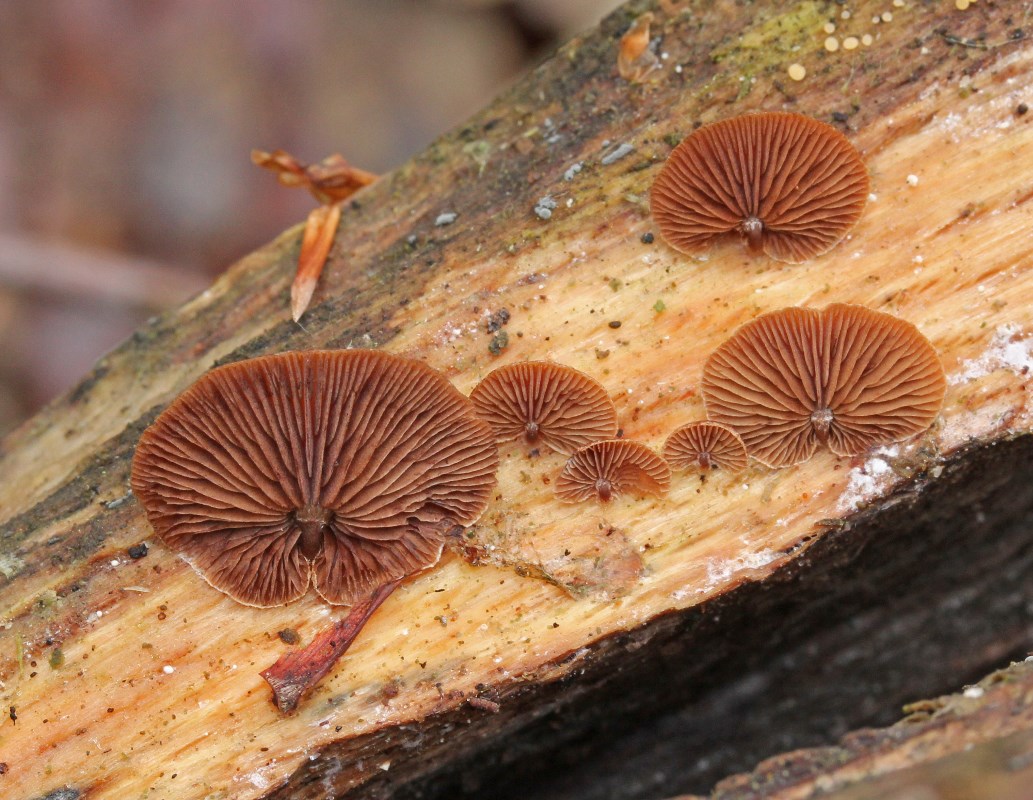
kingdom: Fungi
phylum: Basidiomycota
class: Agaricomycetes
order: Agaricales
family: Strophariaceae
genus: Deconica
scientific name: Deconica horizontalis
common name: ved-stråhat
